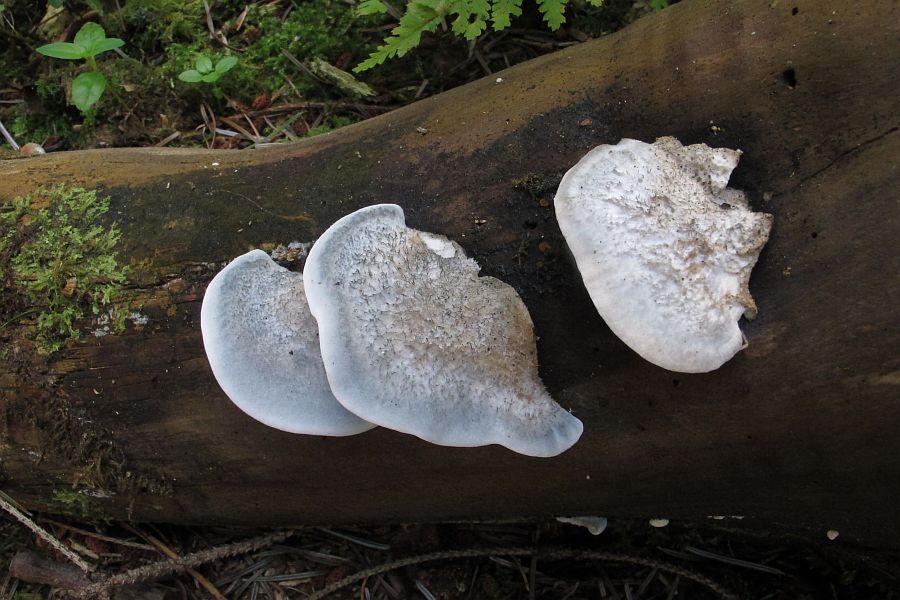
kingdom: Fungi
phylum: Basidiomycota
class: Agaricomycetes
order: Polyporales
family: Polyporaceae
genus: Cyanosporus
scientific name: Cyanosporus caesius
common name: blålig kødporesvamp
